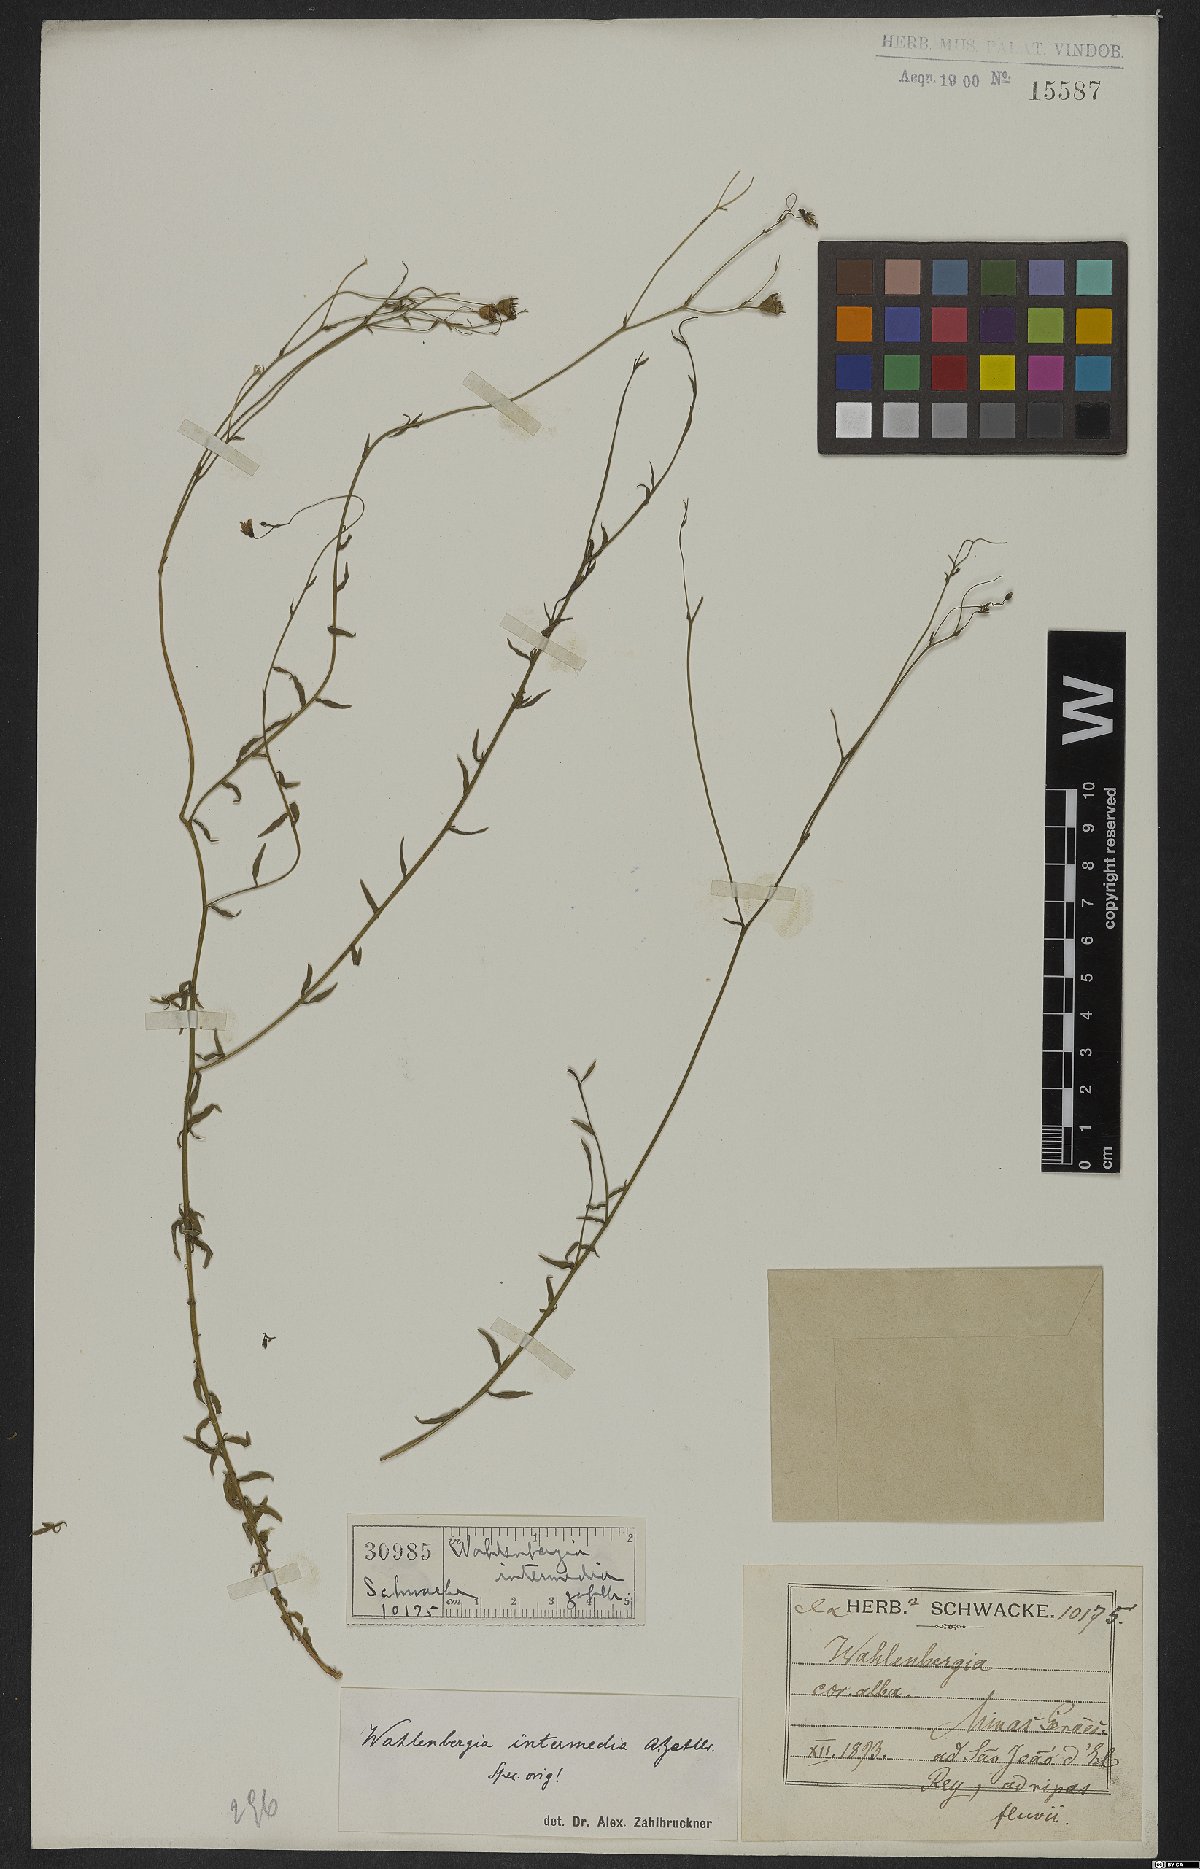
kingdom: Plantae
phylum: Tracheophyta
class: Magnoliopsida
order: Asterales
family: Campanulaceae
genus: Wahlenbergia
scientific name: Wahlenbergia intermedia
